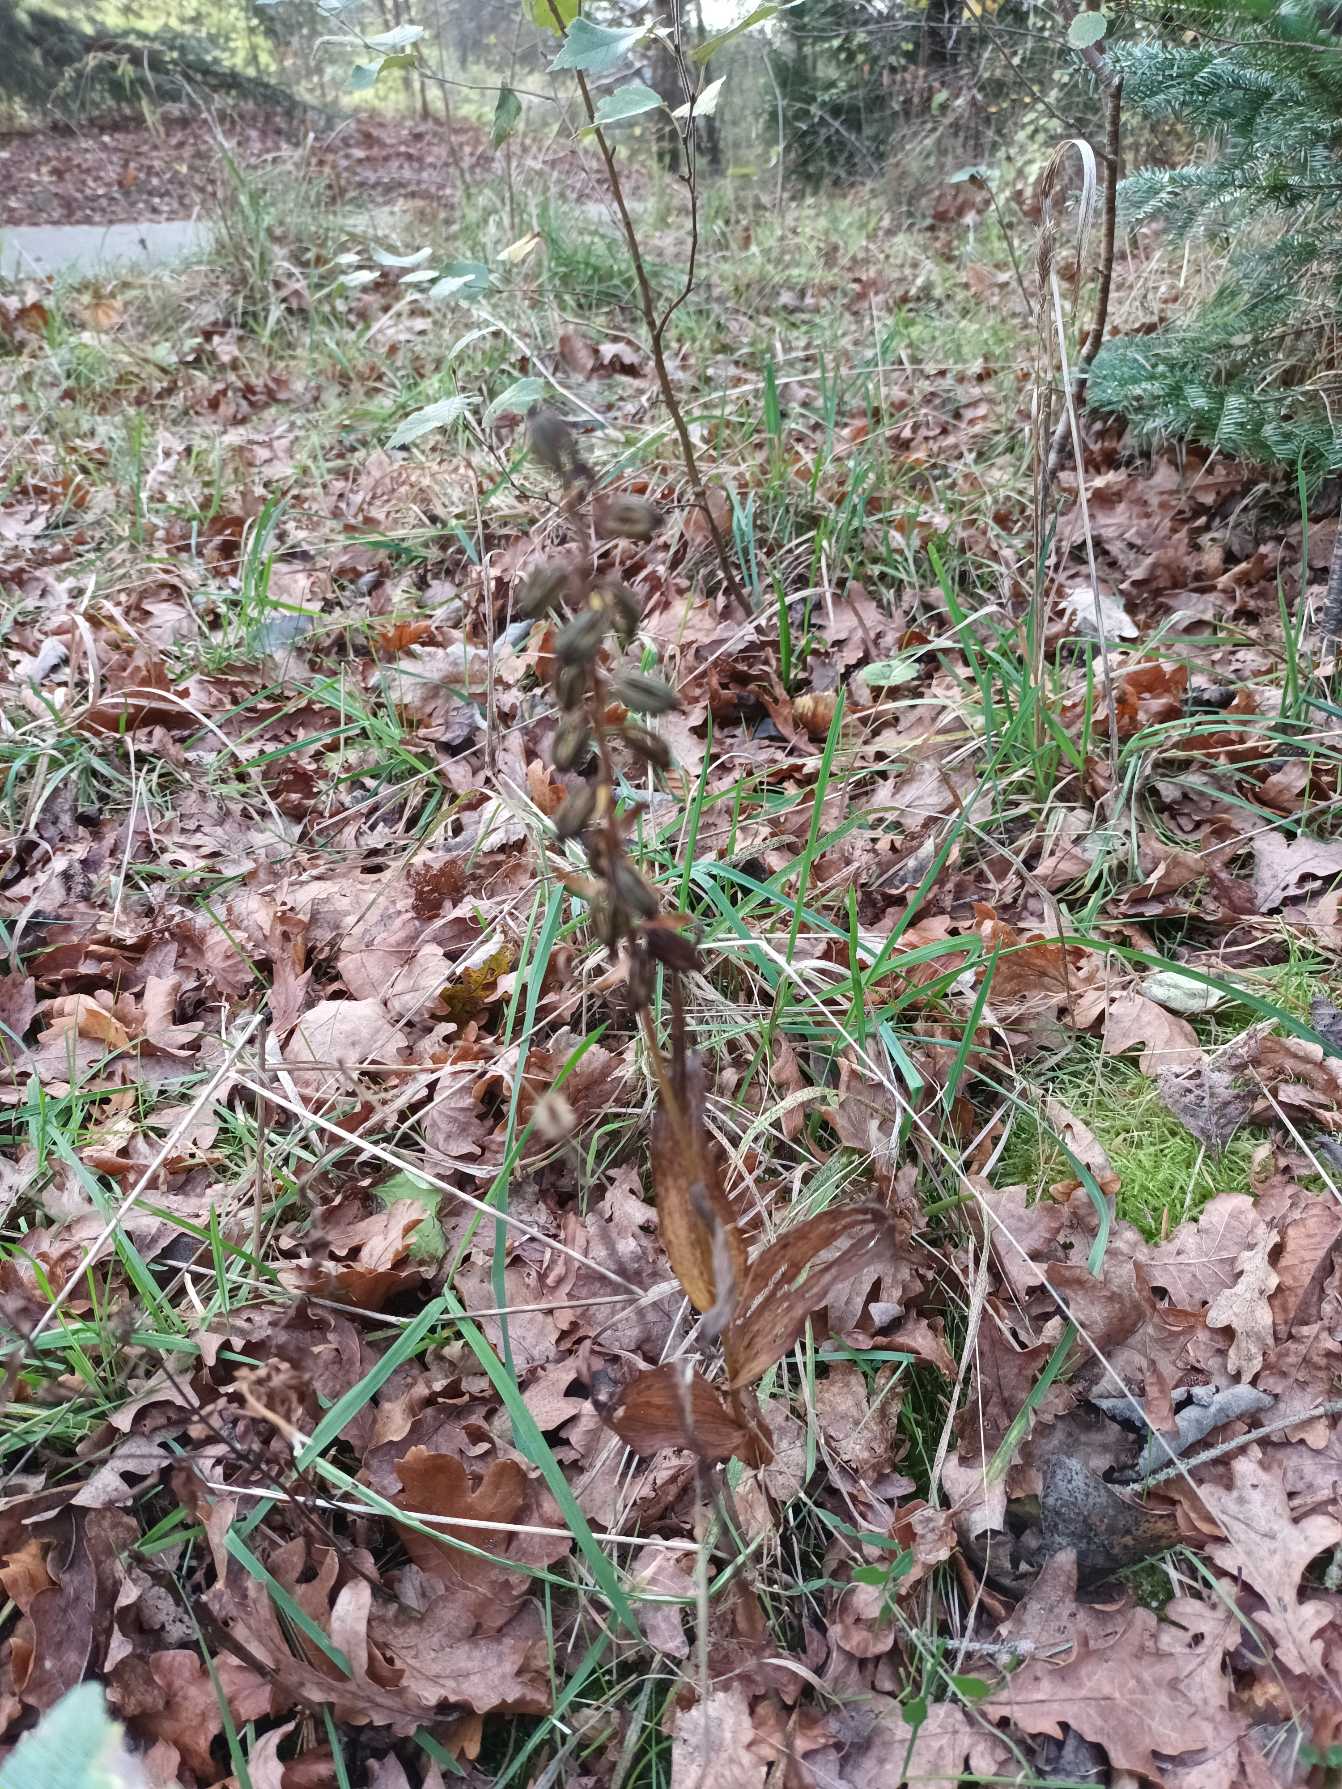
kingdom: Plantae
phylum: Tracheophyta
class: Liliopsida
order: Asparagales
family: Orchidaceae
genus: Epipactis
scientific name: Epipactis helleborine
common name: Skov-hullæbe
